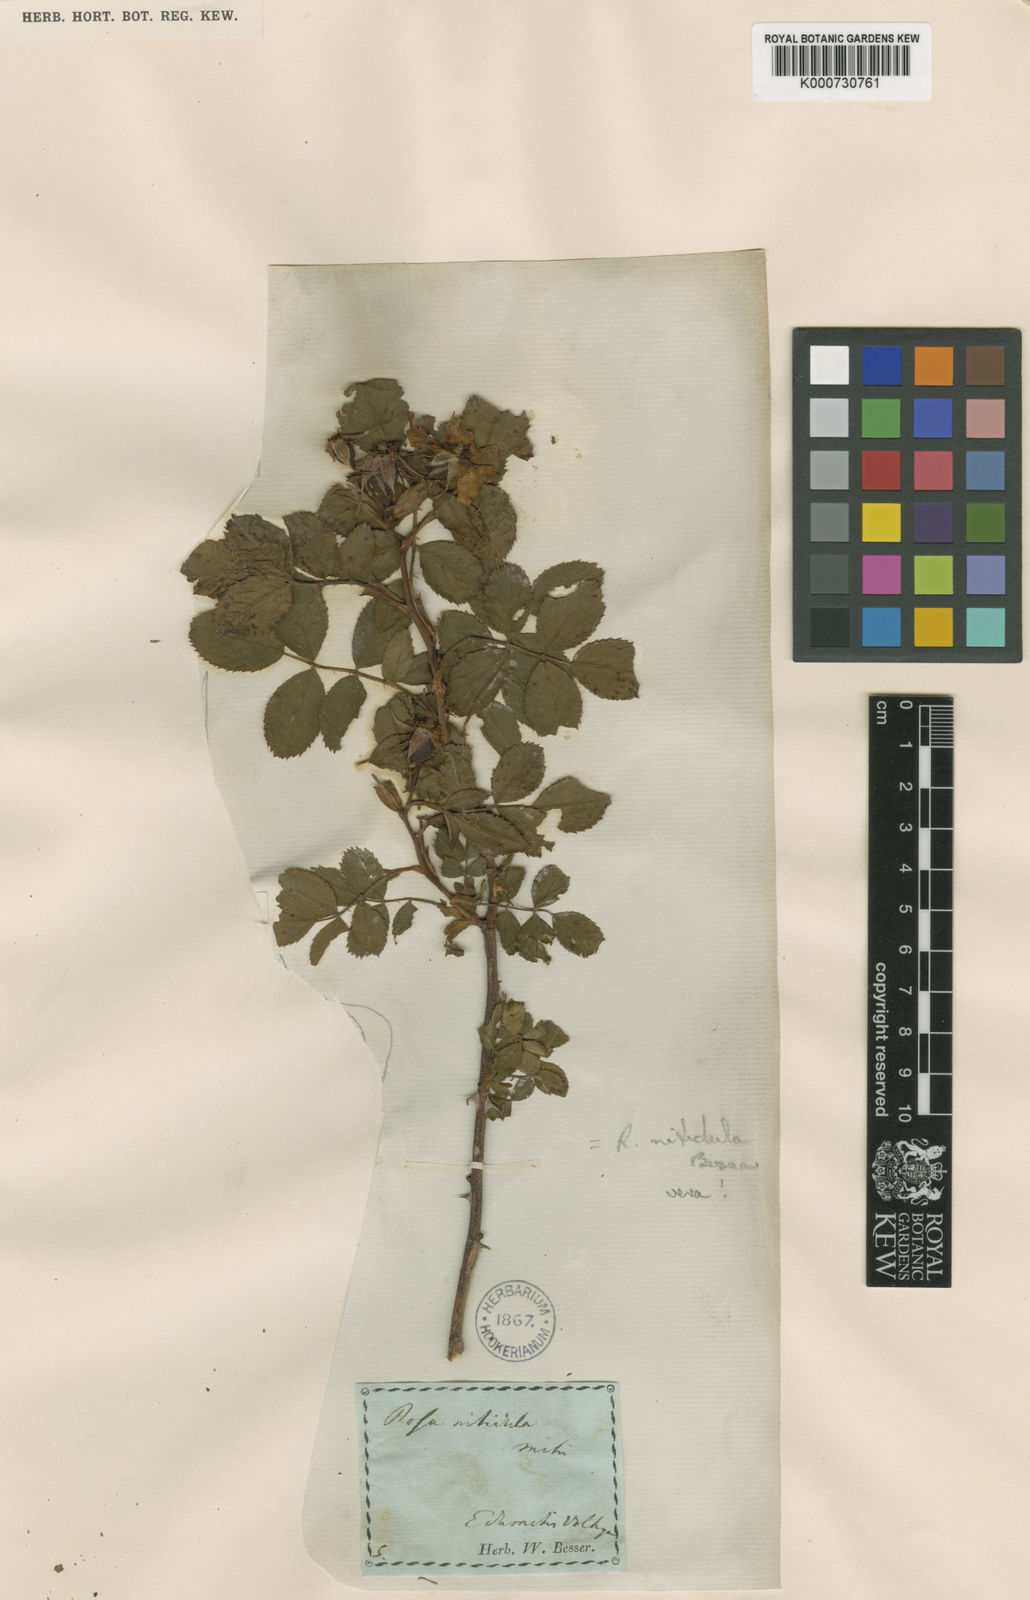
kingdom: Plantae
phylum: Tracheophyta
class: Magnoliopsida
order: Rosales
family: Rosaceae
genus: Rosa
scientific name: Rosa canina
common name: Dog rose
